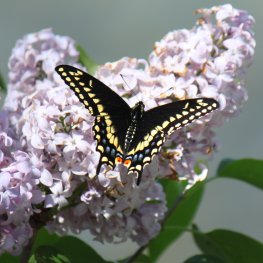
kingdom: Animalia
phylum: Arthropoda
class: Insecta
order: Lepidoptera
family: Papilionidae
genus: Papilio
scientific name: Papilio polyxenes
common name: Black Swallowtail
